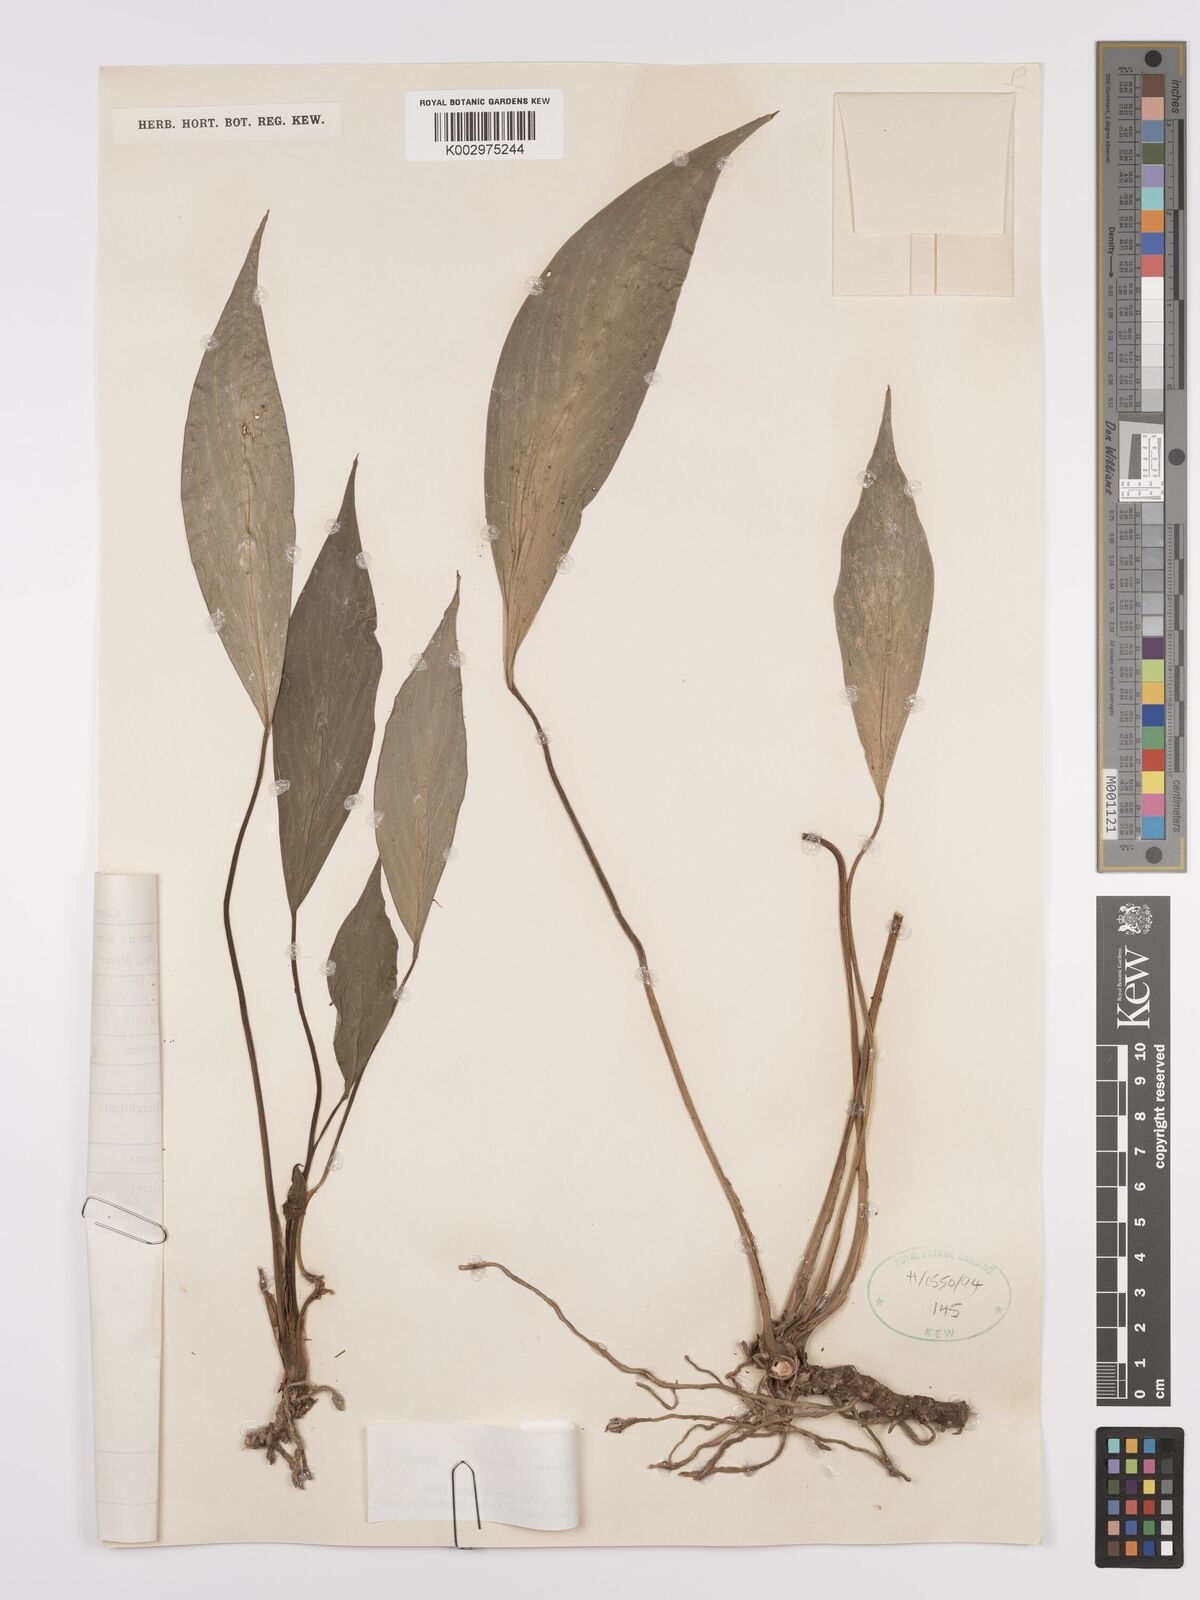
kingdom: Plantae
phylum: Tracheophyta
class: Liliopsida
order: Alismatales
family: Araceae
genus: Homalomena
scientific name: Homalomena lancifolia
